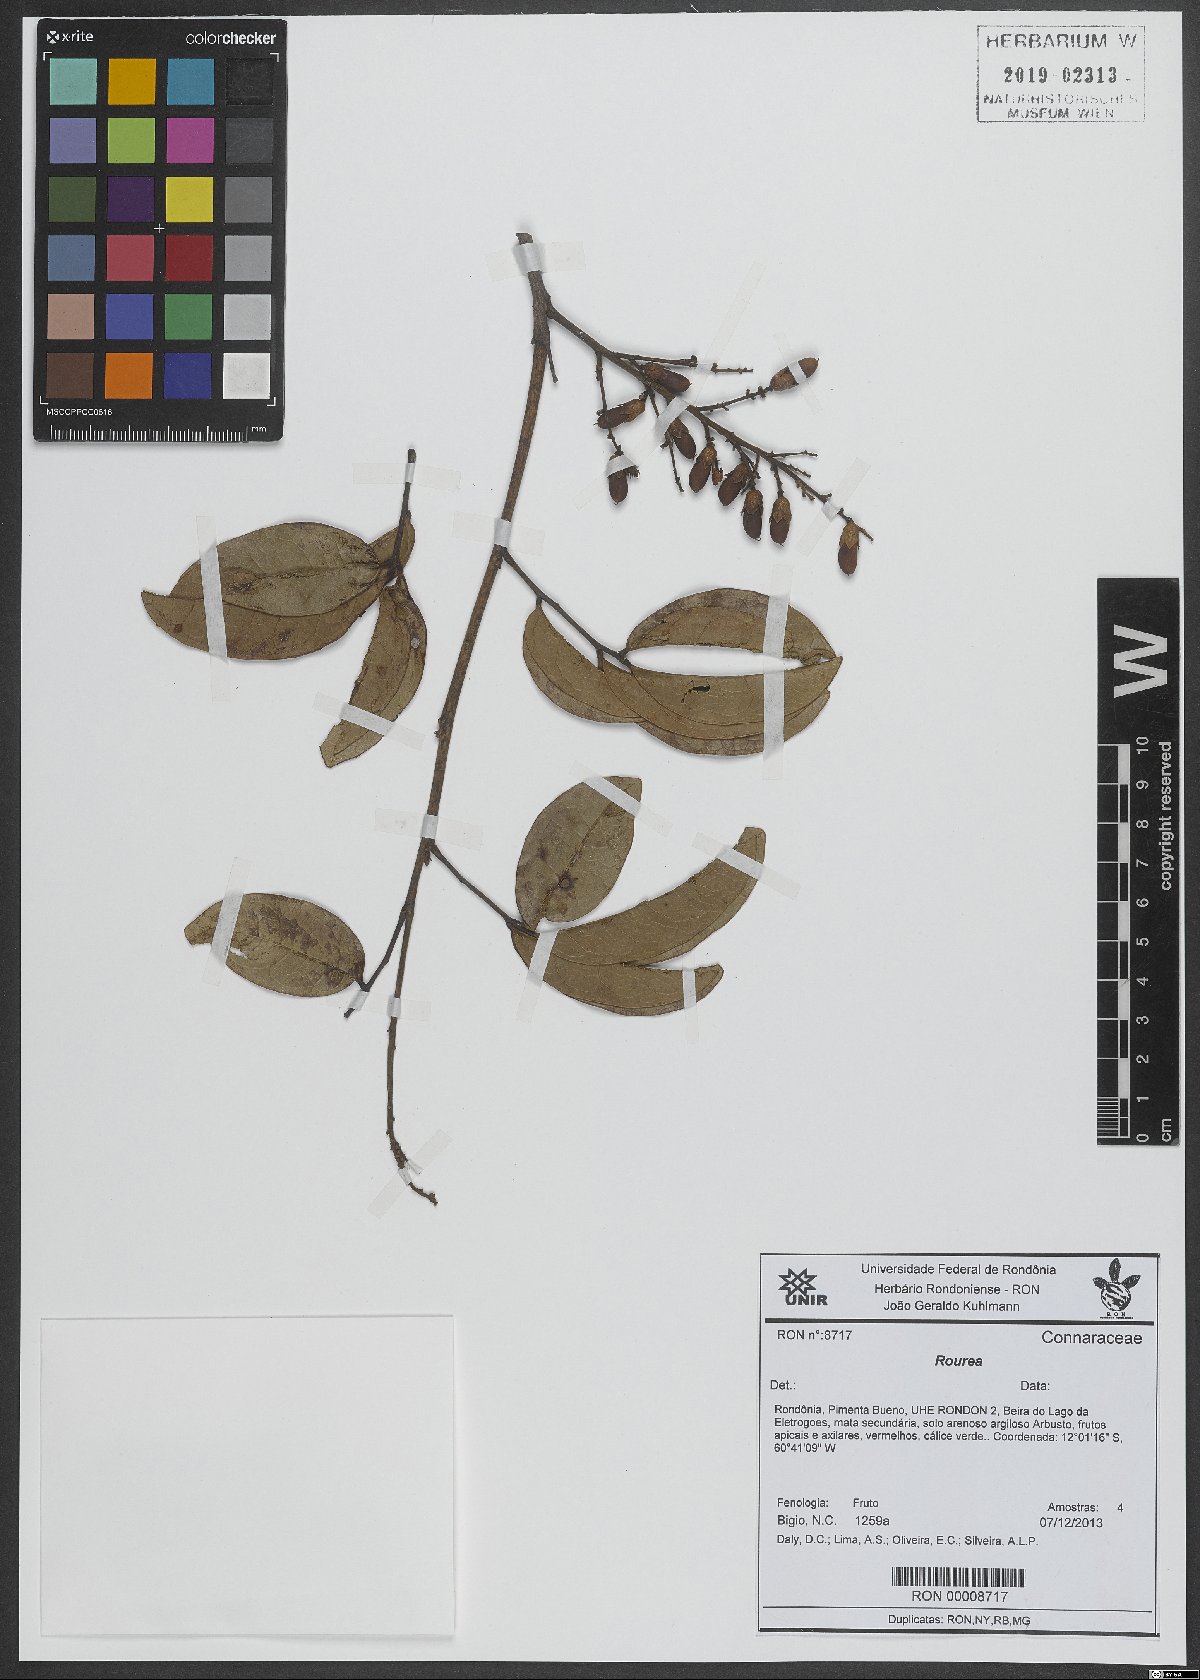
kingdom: Plantae
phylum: Tracheophyta
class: Magnoliopsida
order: Oxalidales
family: Connaraceae
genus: Rourea
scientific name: Rourea
